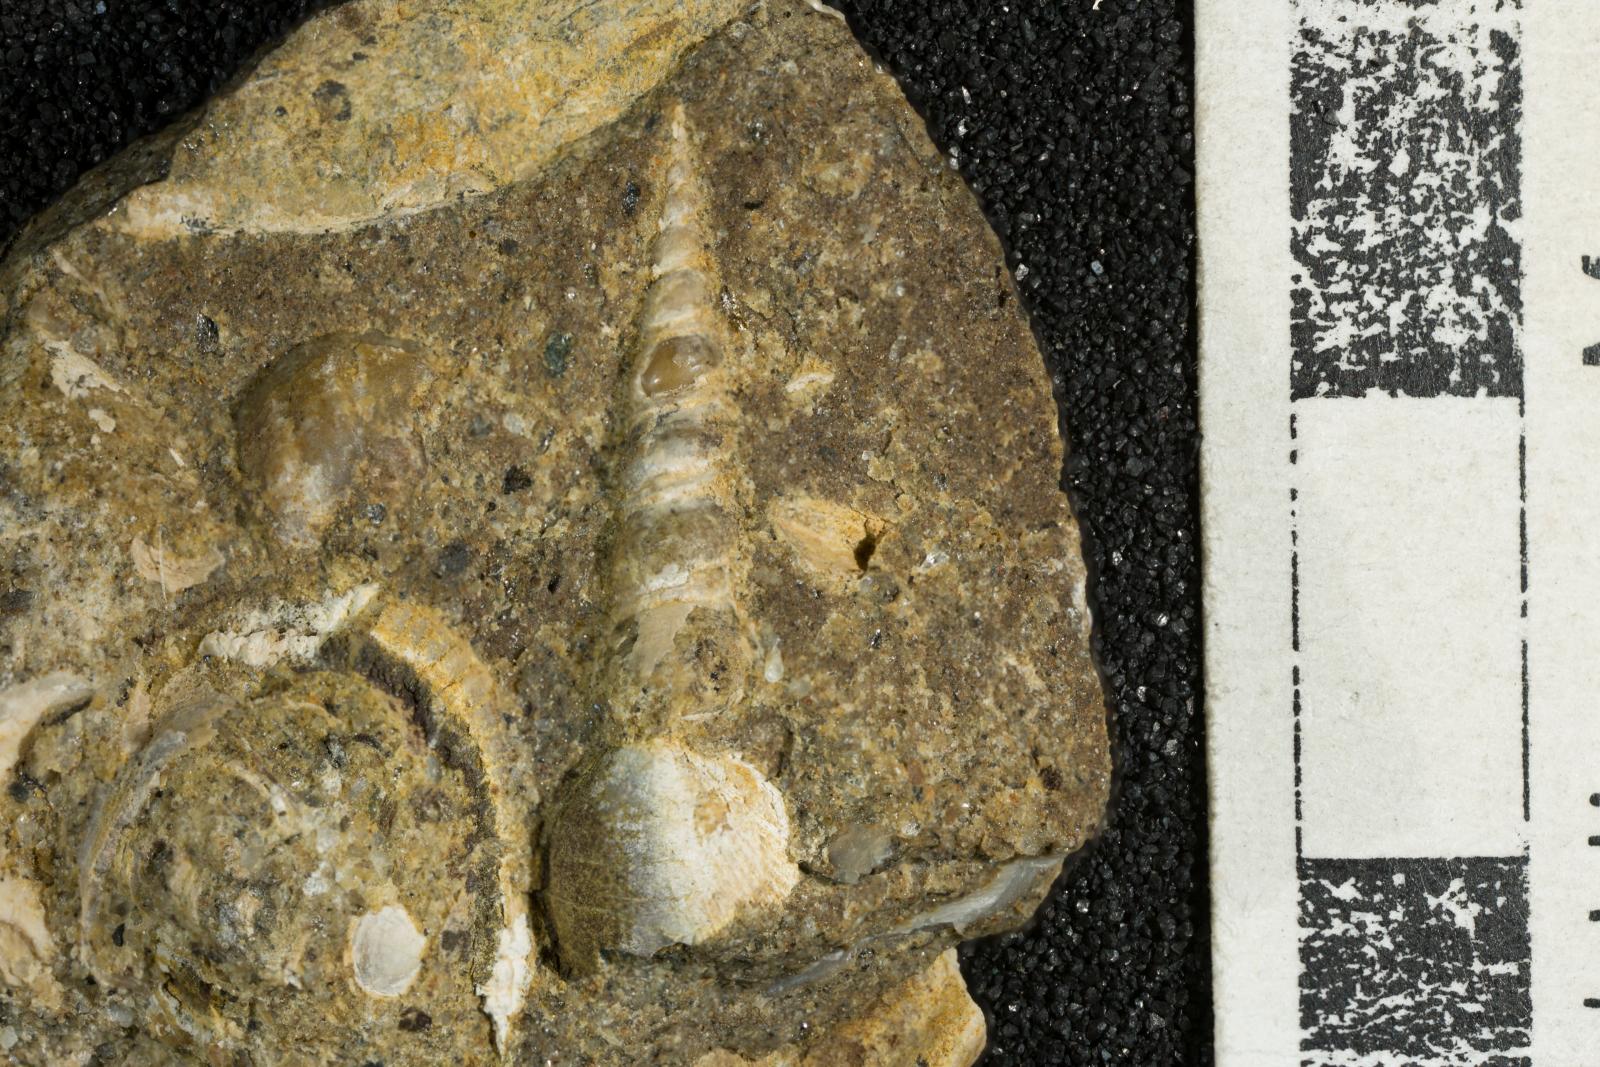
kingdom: Animalia
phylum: Mollusca
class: Gastropoda
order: Littorinimorpha
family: Aporrhaidae
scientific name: Aporrhaidae
